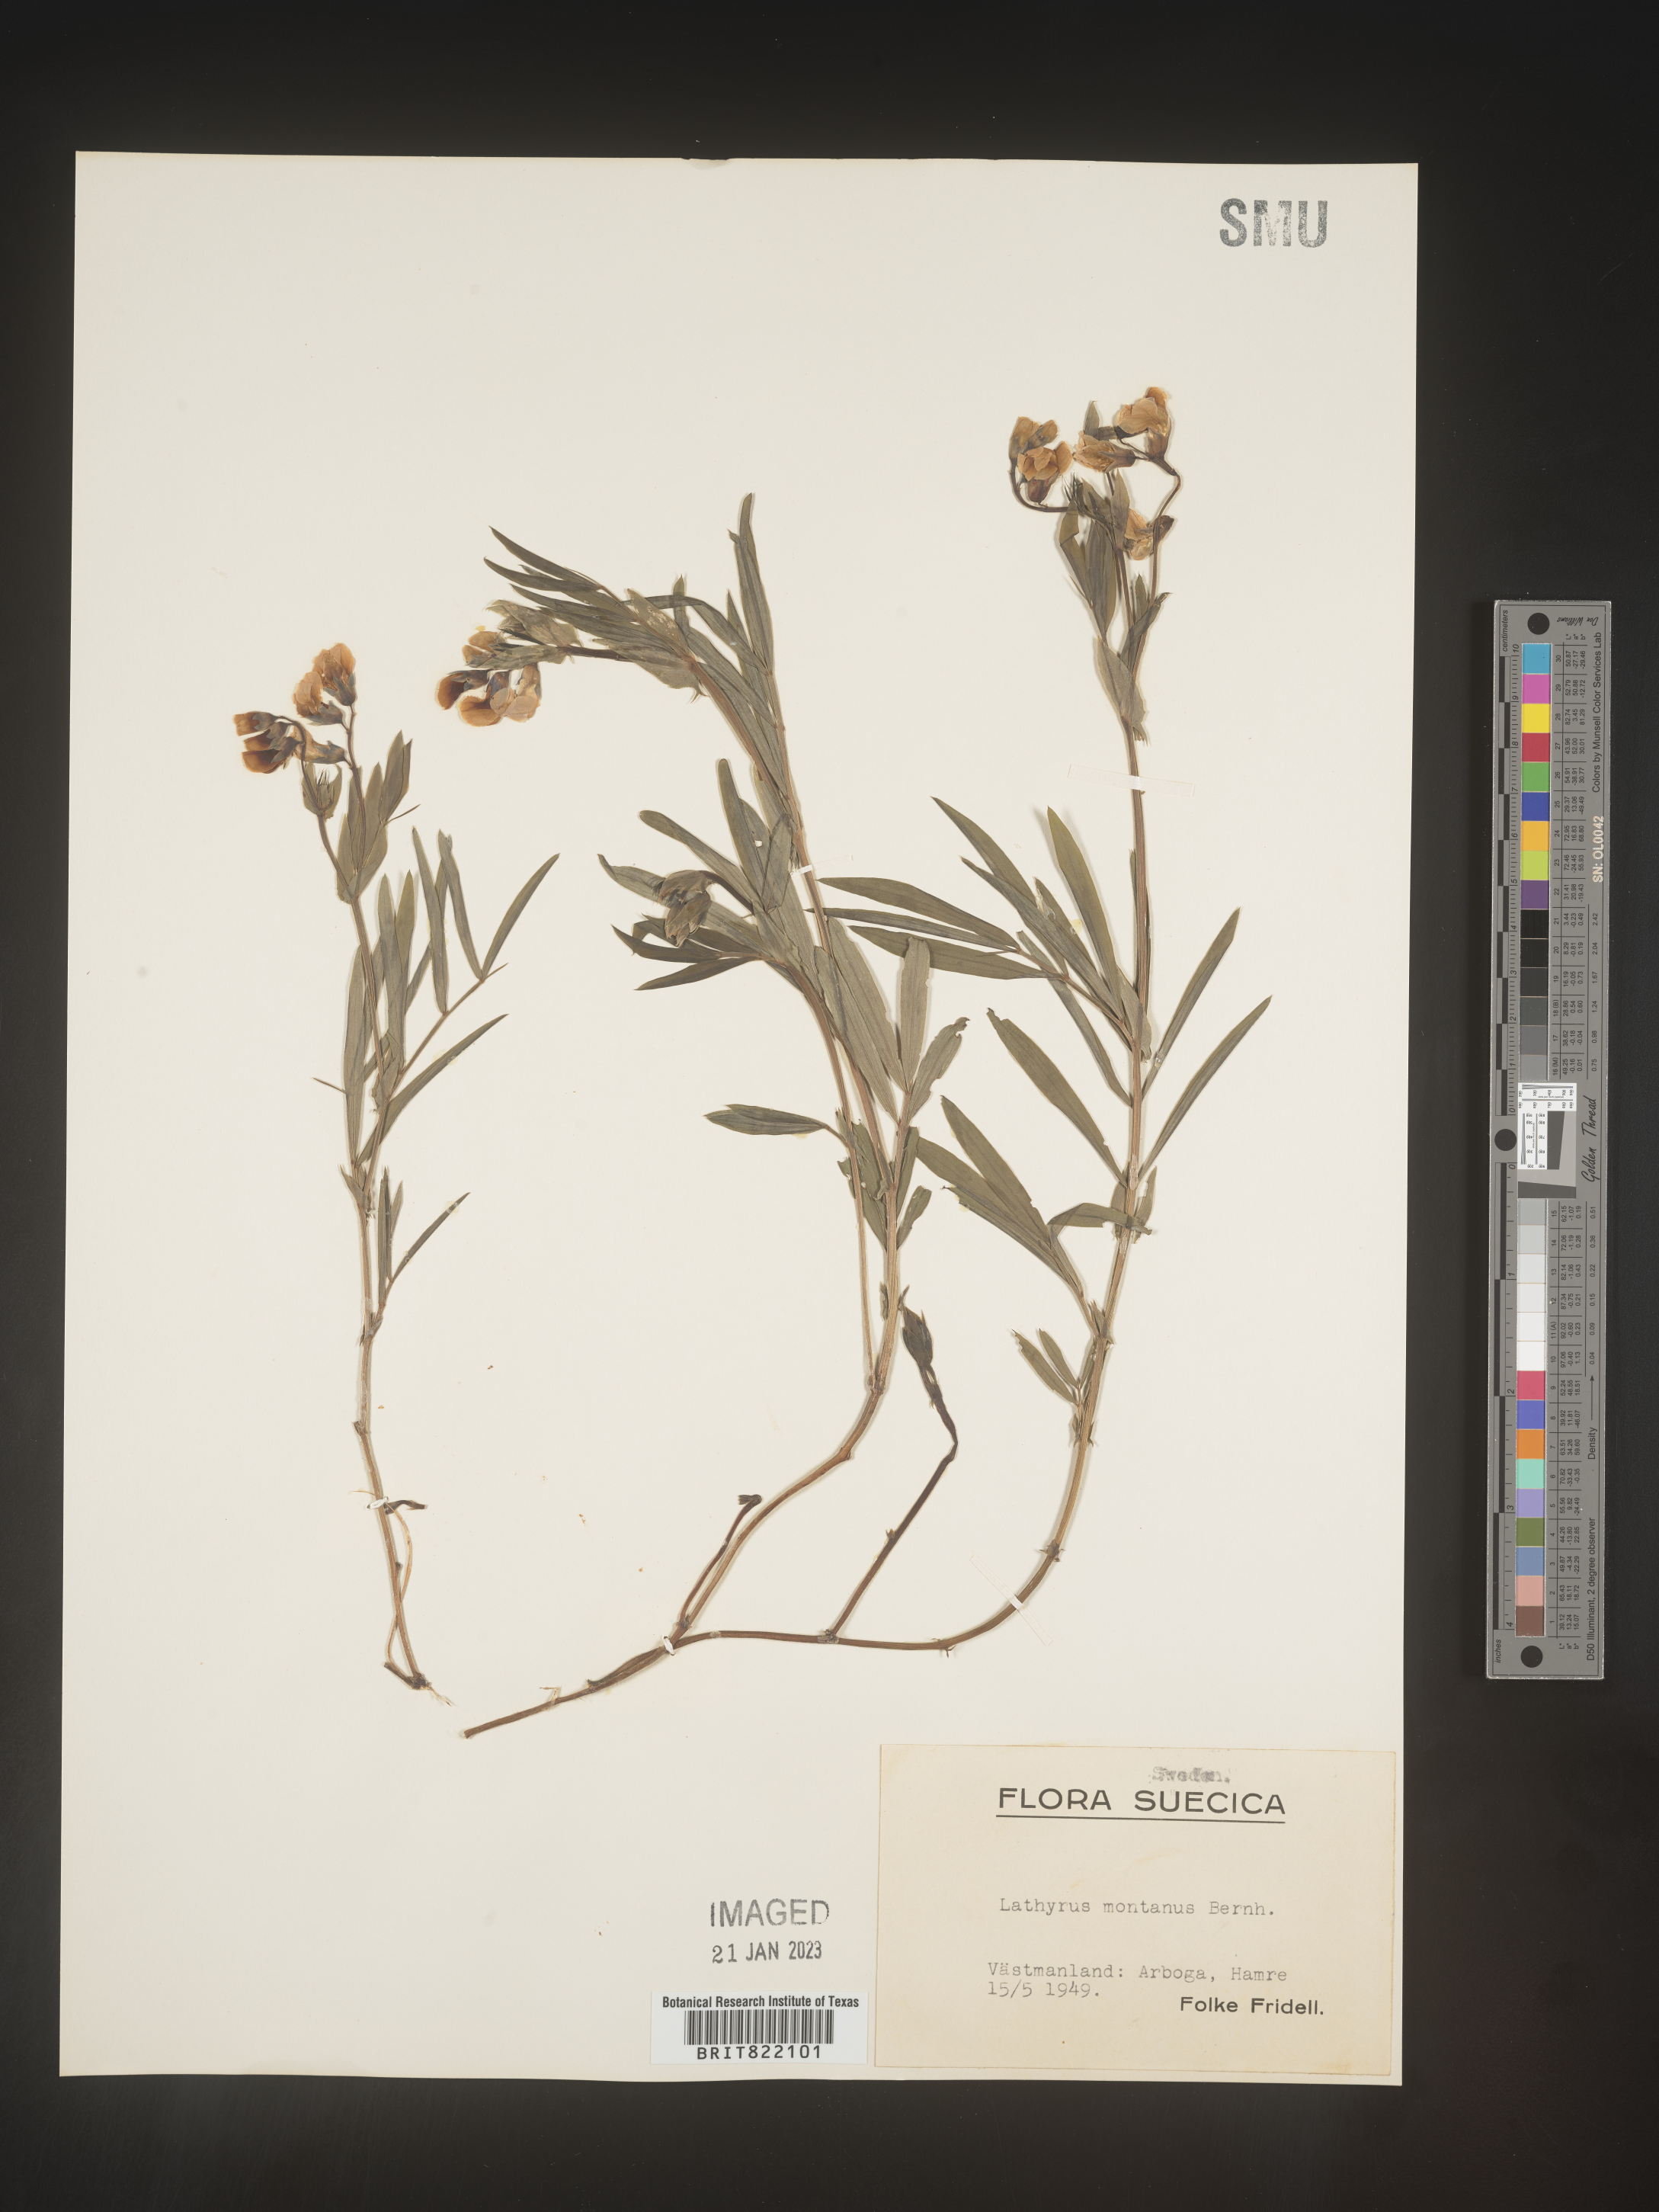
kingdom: Plantae
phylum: Tracheophyta
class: Magnoliopsida
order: Fabales
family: Fabaceae
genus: Lathyrus
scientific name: Lathyrus
